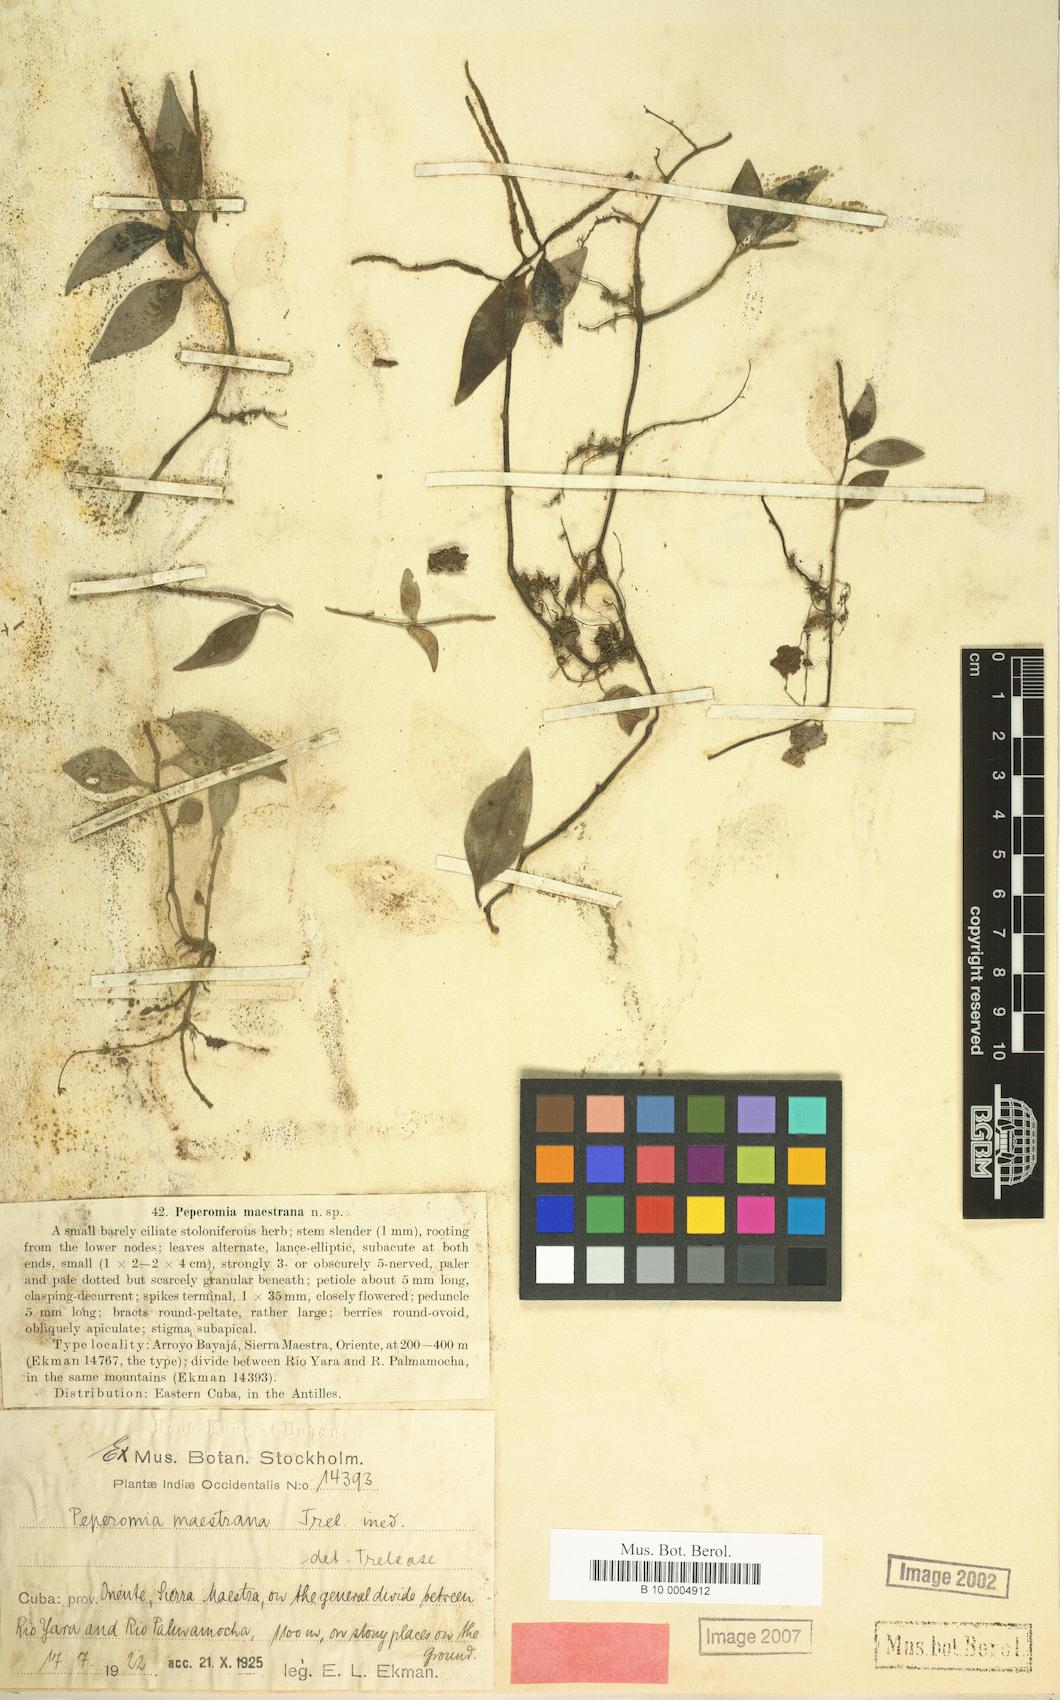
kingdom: Plantae
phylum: Tracheophyta
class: Magnoliopsida
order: Piperales
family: Piperaceae
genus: Peperomia
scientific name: Peperomia maestrana
